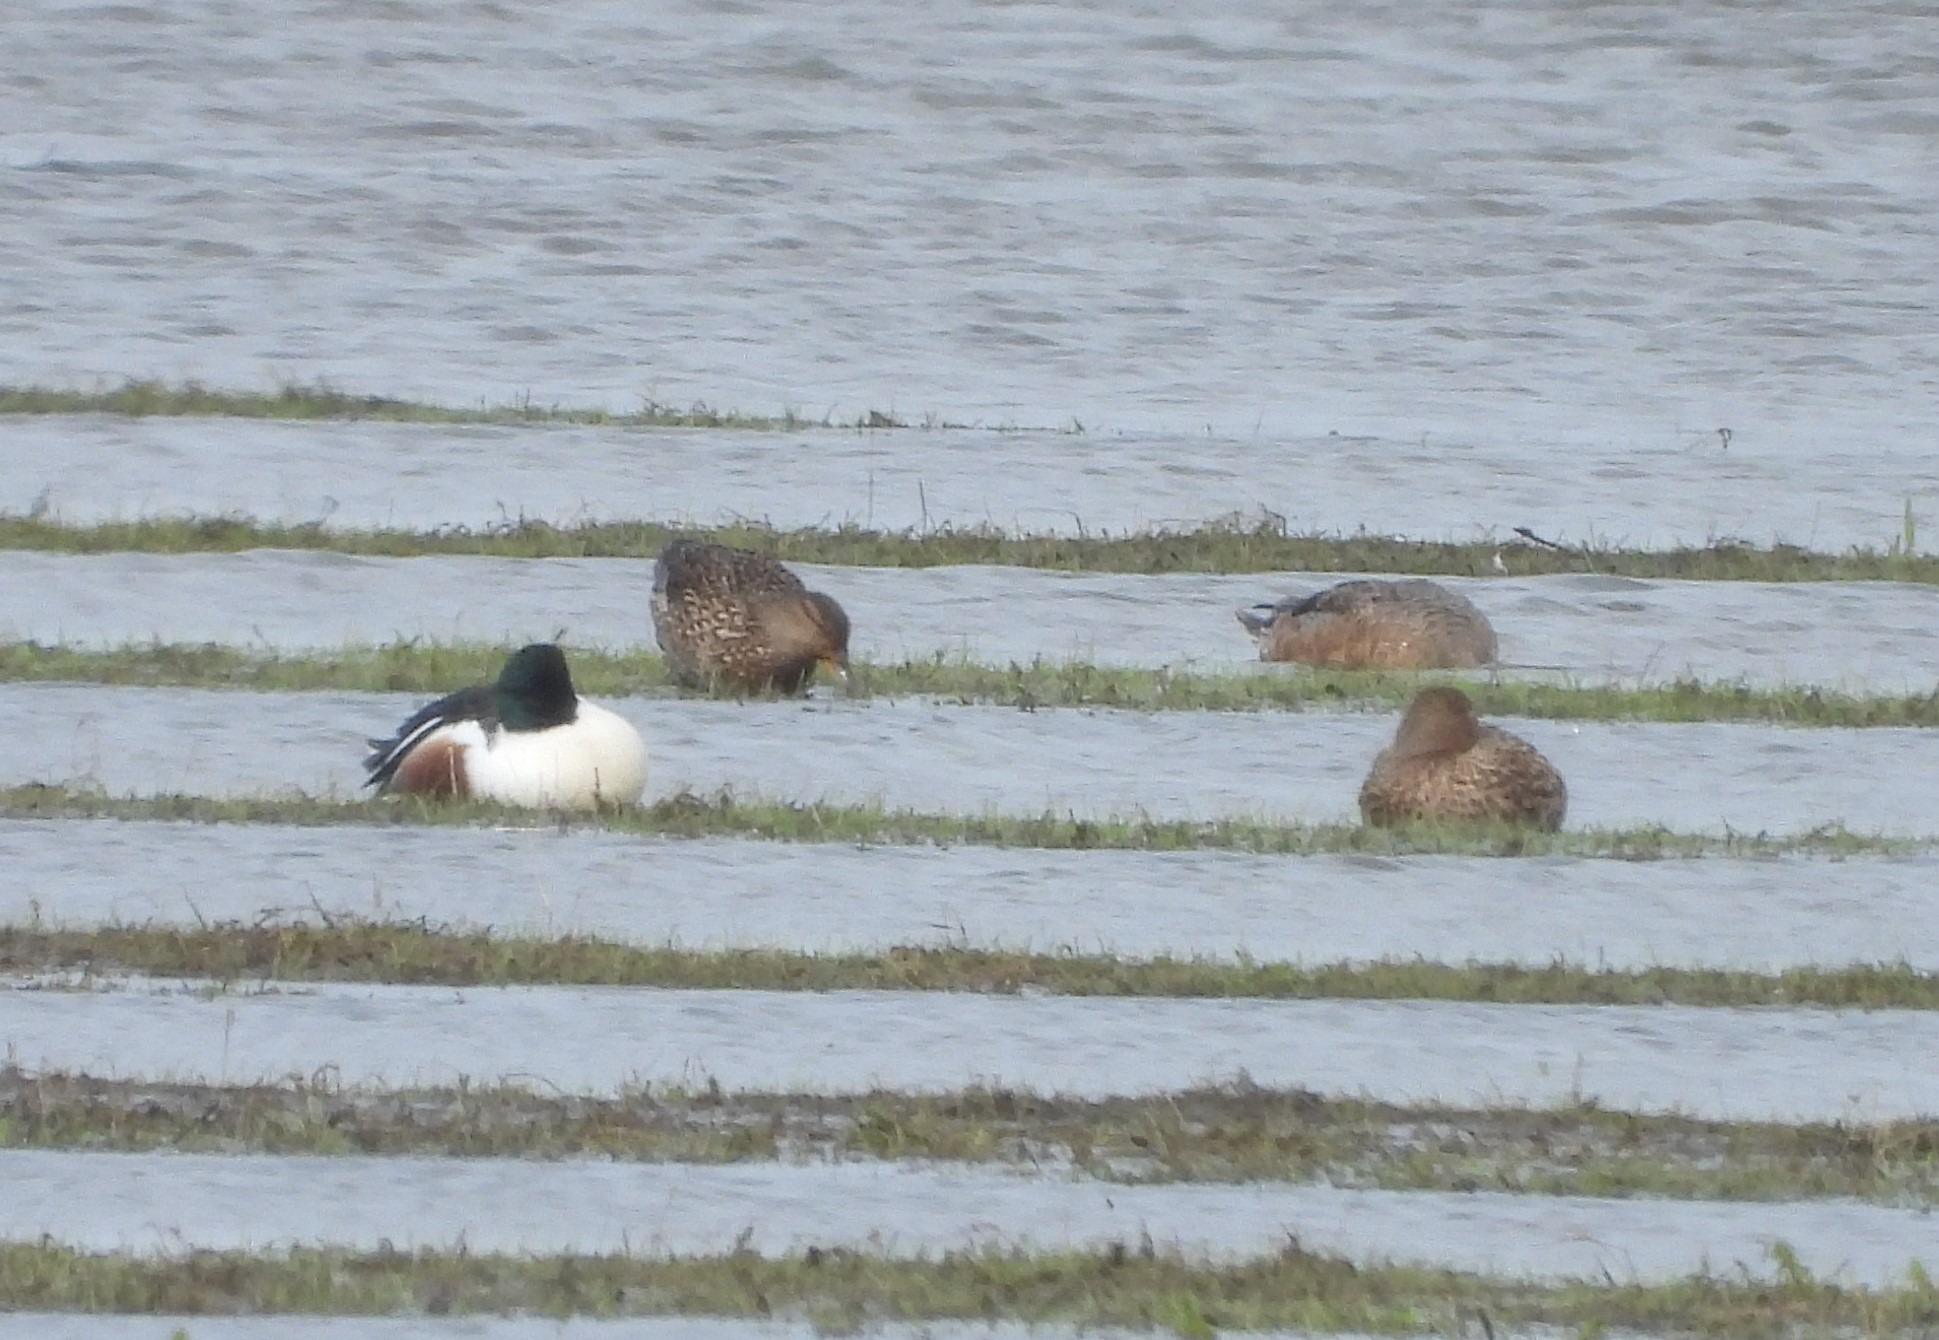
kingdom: Animalia
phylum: Chordata
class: Aves
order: Anseriformes
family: Anatidae
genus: Spatula
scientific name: Spatula clypeata
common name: Skeand
